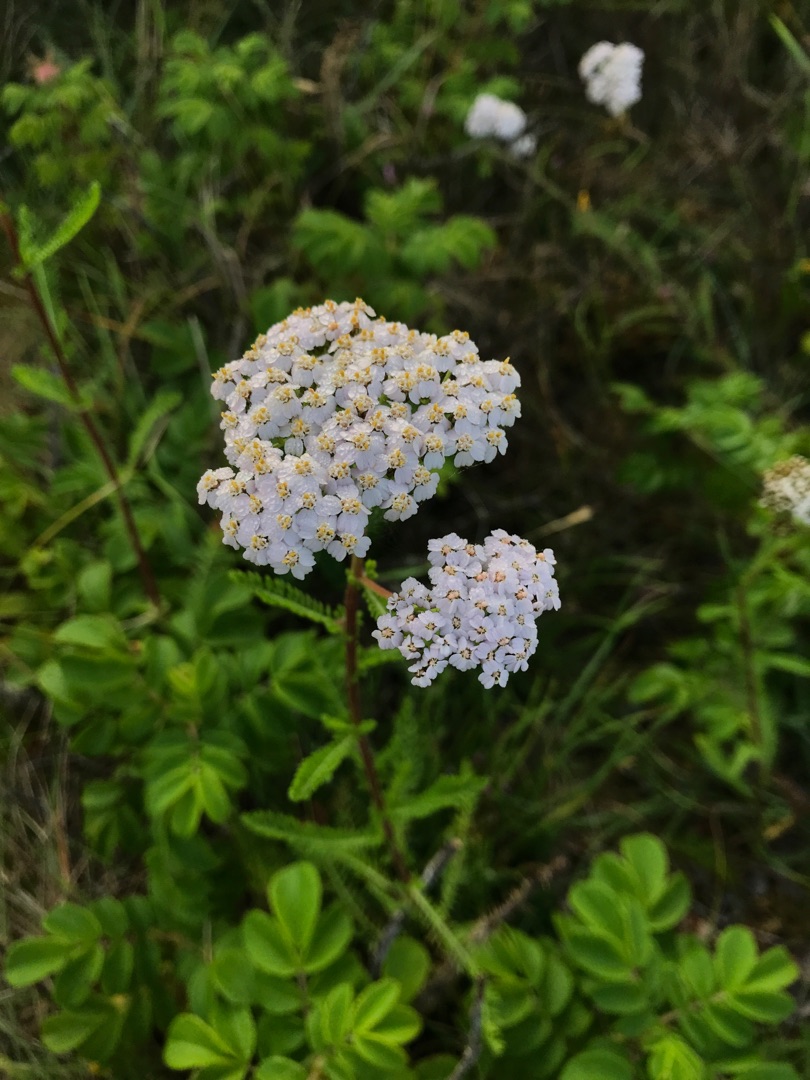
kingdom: Plantae
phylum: Tracheophyta
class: Magnoliopsida
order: Asterales
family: Asteraceae
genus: Achillea
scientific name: Achillea millefolium
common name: Almindelig røllike
